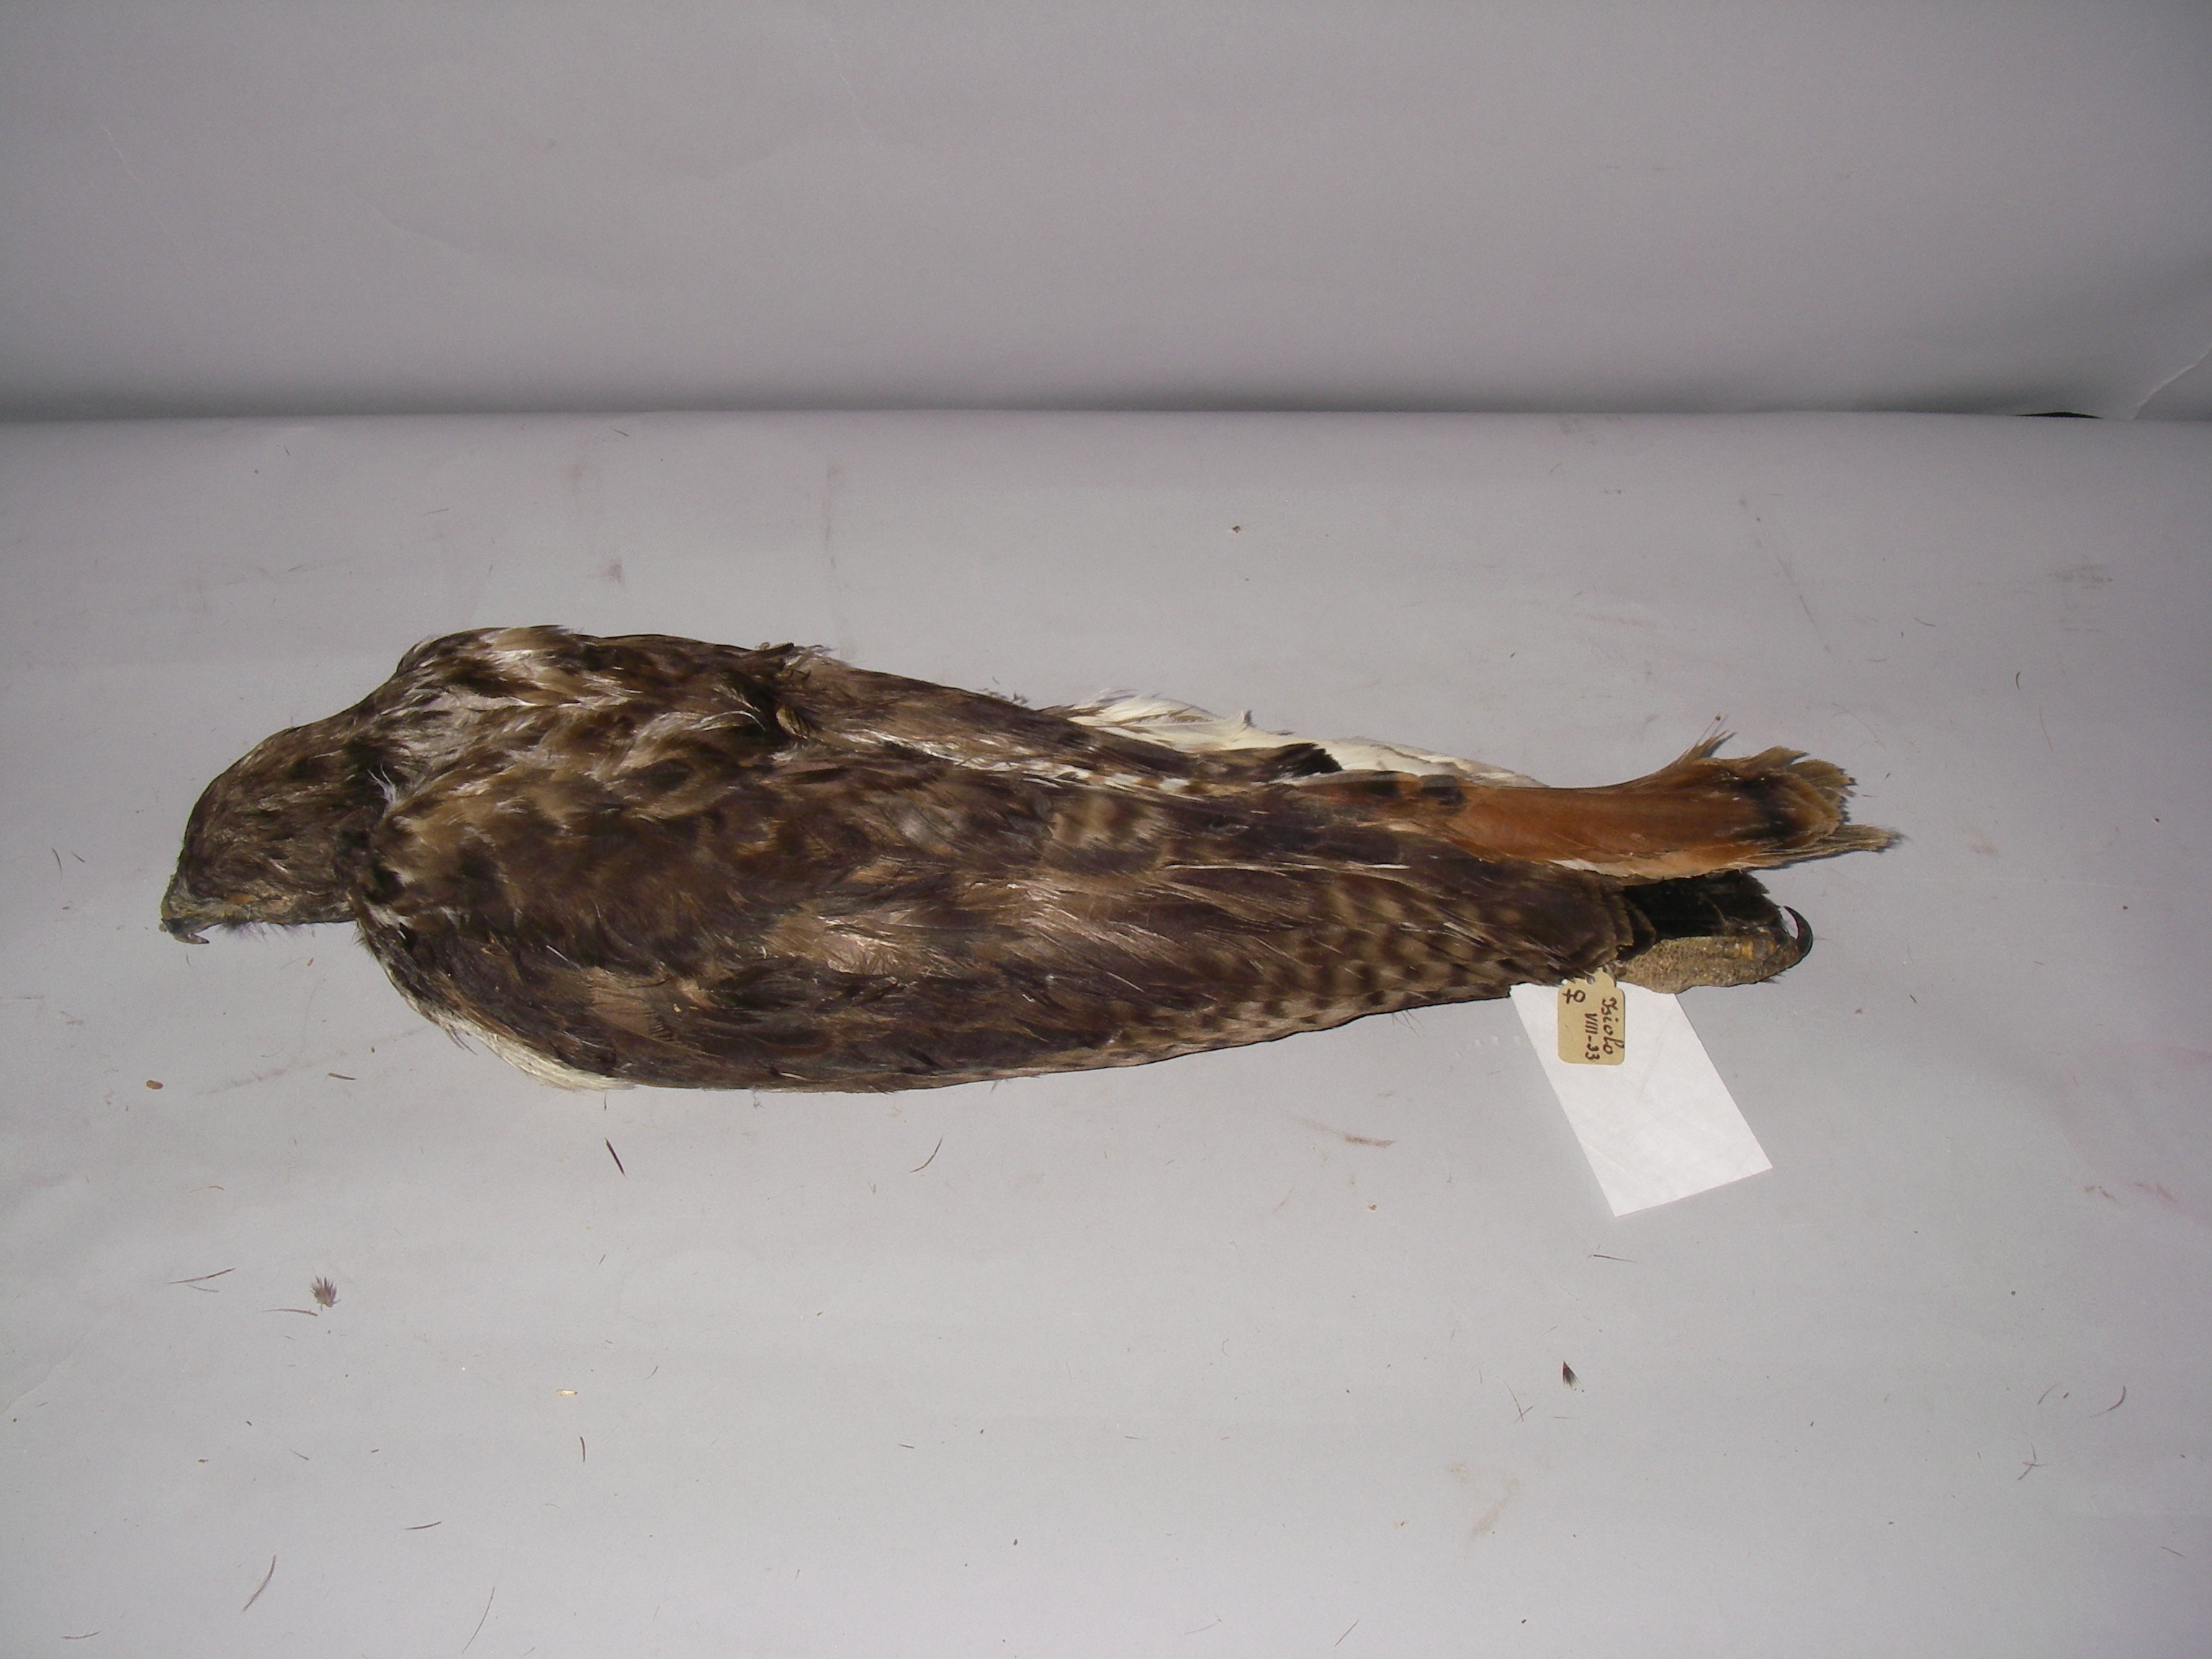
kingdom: Animalia
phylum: Chordata
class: Aves
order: Accipitriformes
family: Accipitridae
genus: Buteo
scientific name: Buteo augur
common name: Augur buzzard
